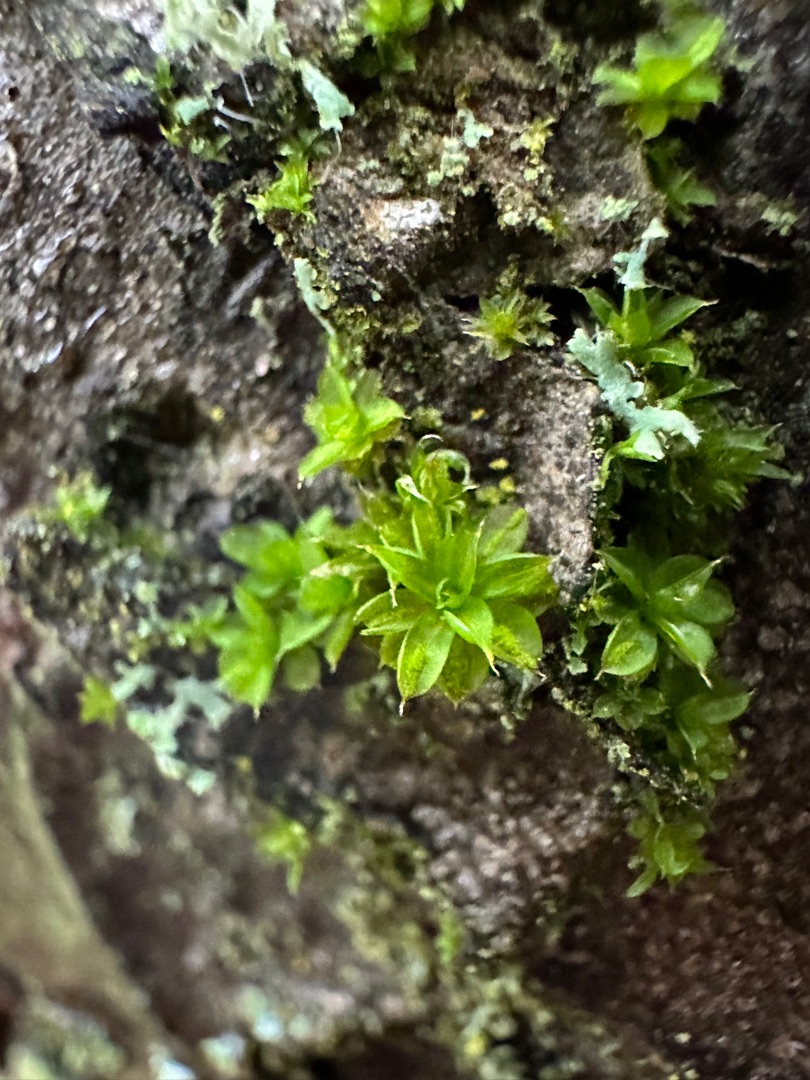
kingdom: Plantae
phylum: Bryophyta
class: Bryopsida
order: Pottiales
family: Pottiaceae
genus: Syntrichia
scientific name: Syntrichia papillosa
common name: Bark-hårstjerne
